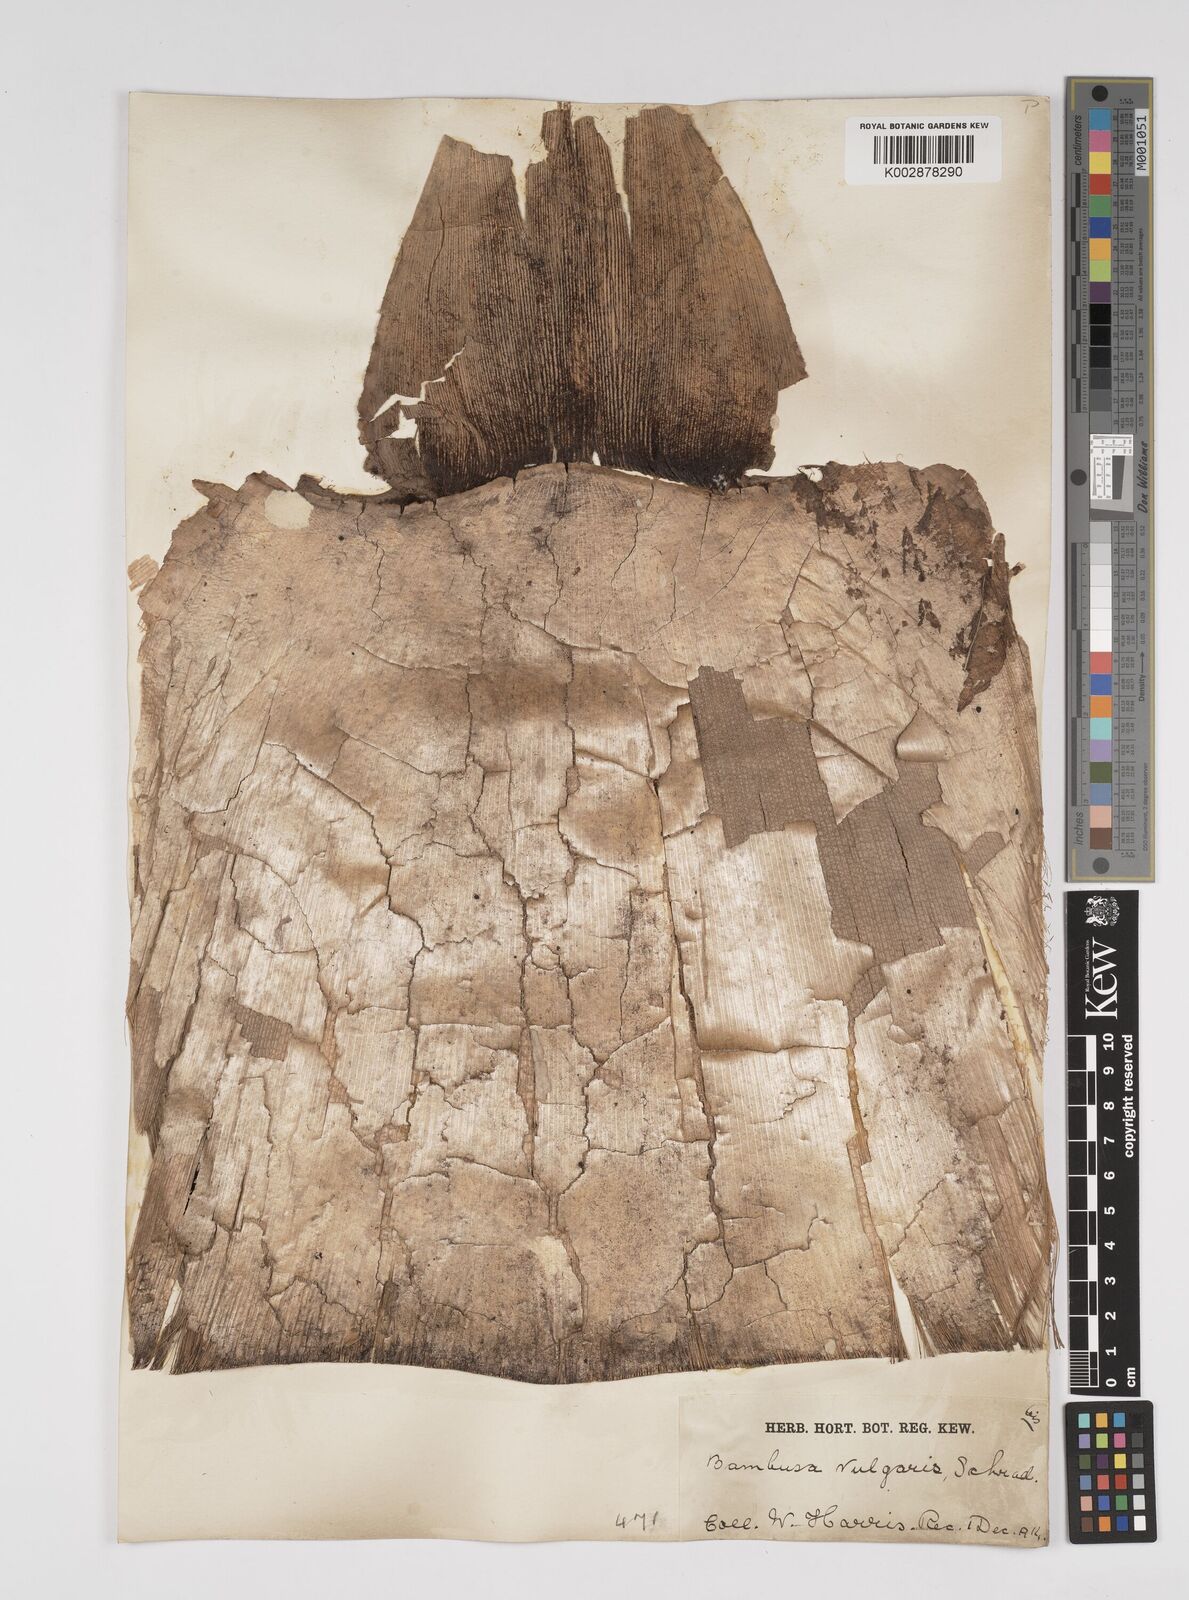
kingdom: Plantae
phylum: Tracheophyta
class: Liliopsida
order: Poales
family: Poaceae
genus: Bambusa
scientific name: Bambusa vulgaris
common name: Common bamboo
